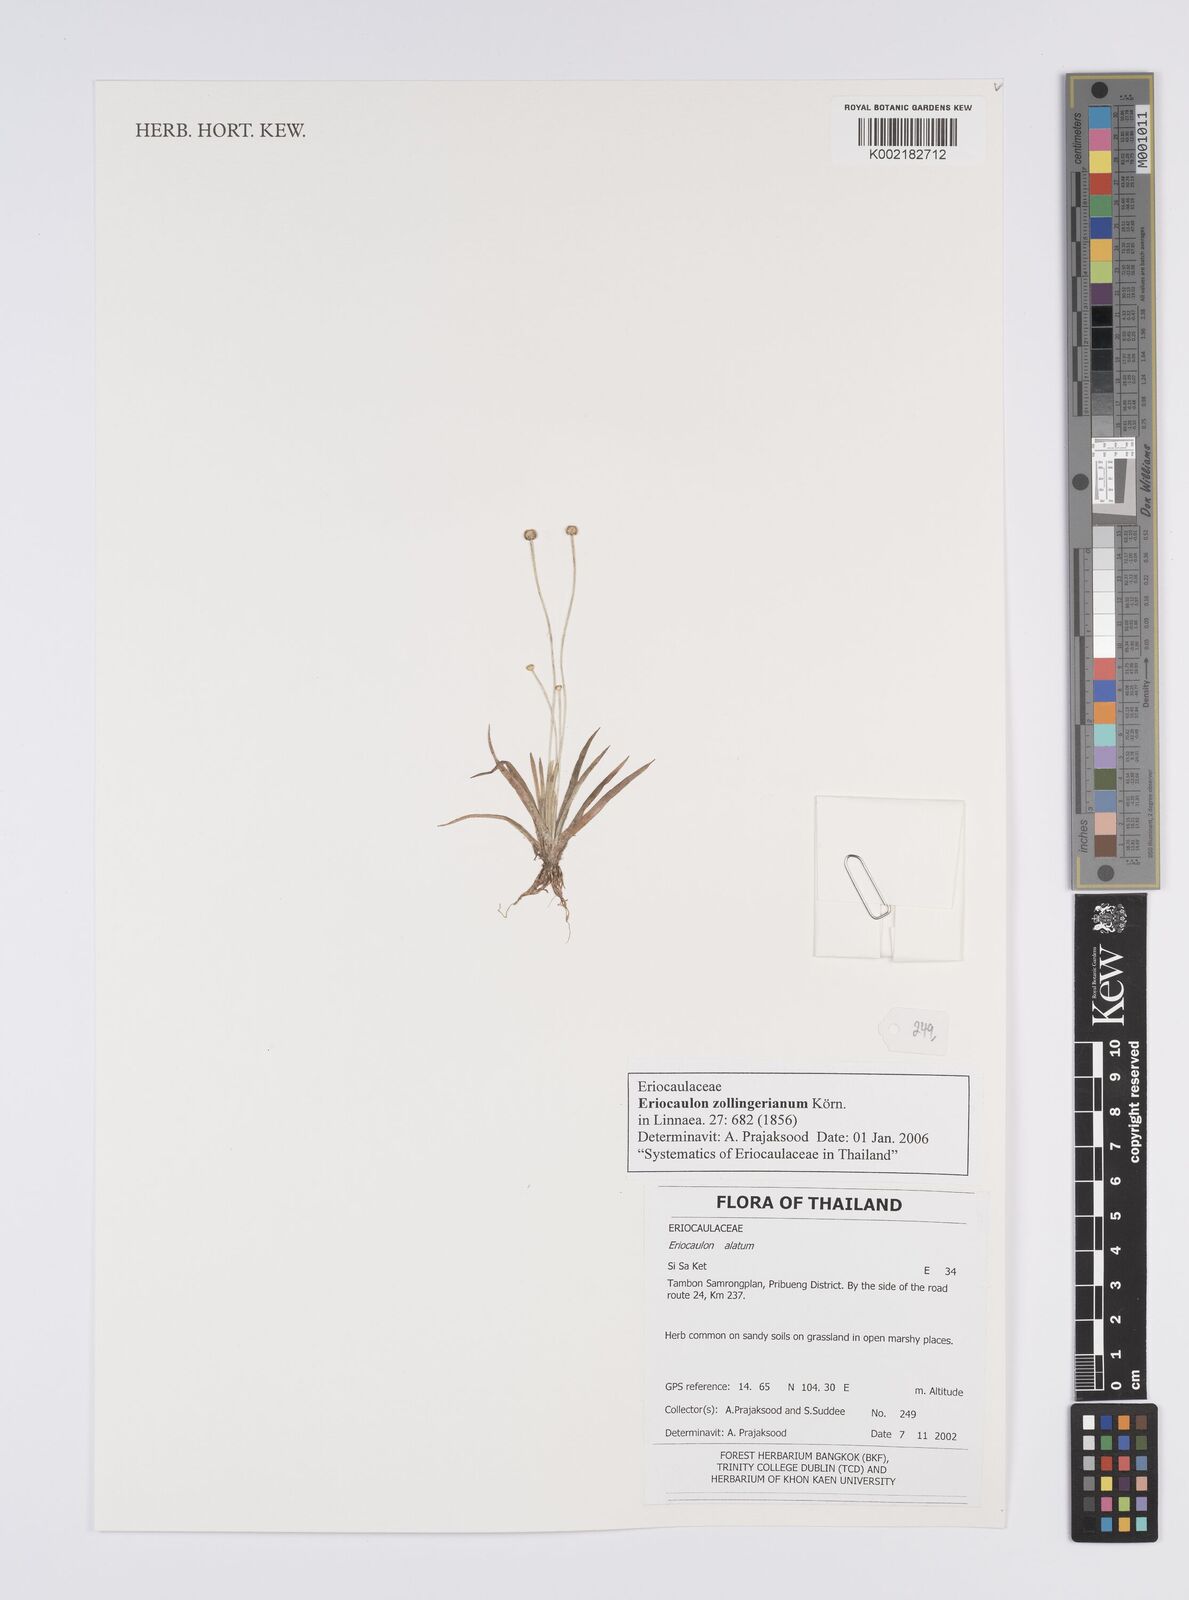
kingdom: Plantae
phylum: Tracheophyta
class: Liliopsida
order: Poales
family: Eriocaulaceae
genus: Eriocaulon
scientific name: Eriocaulon zollingerianum
